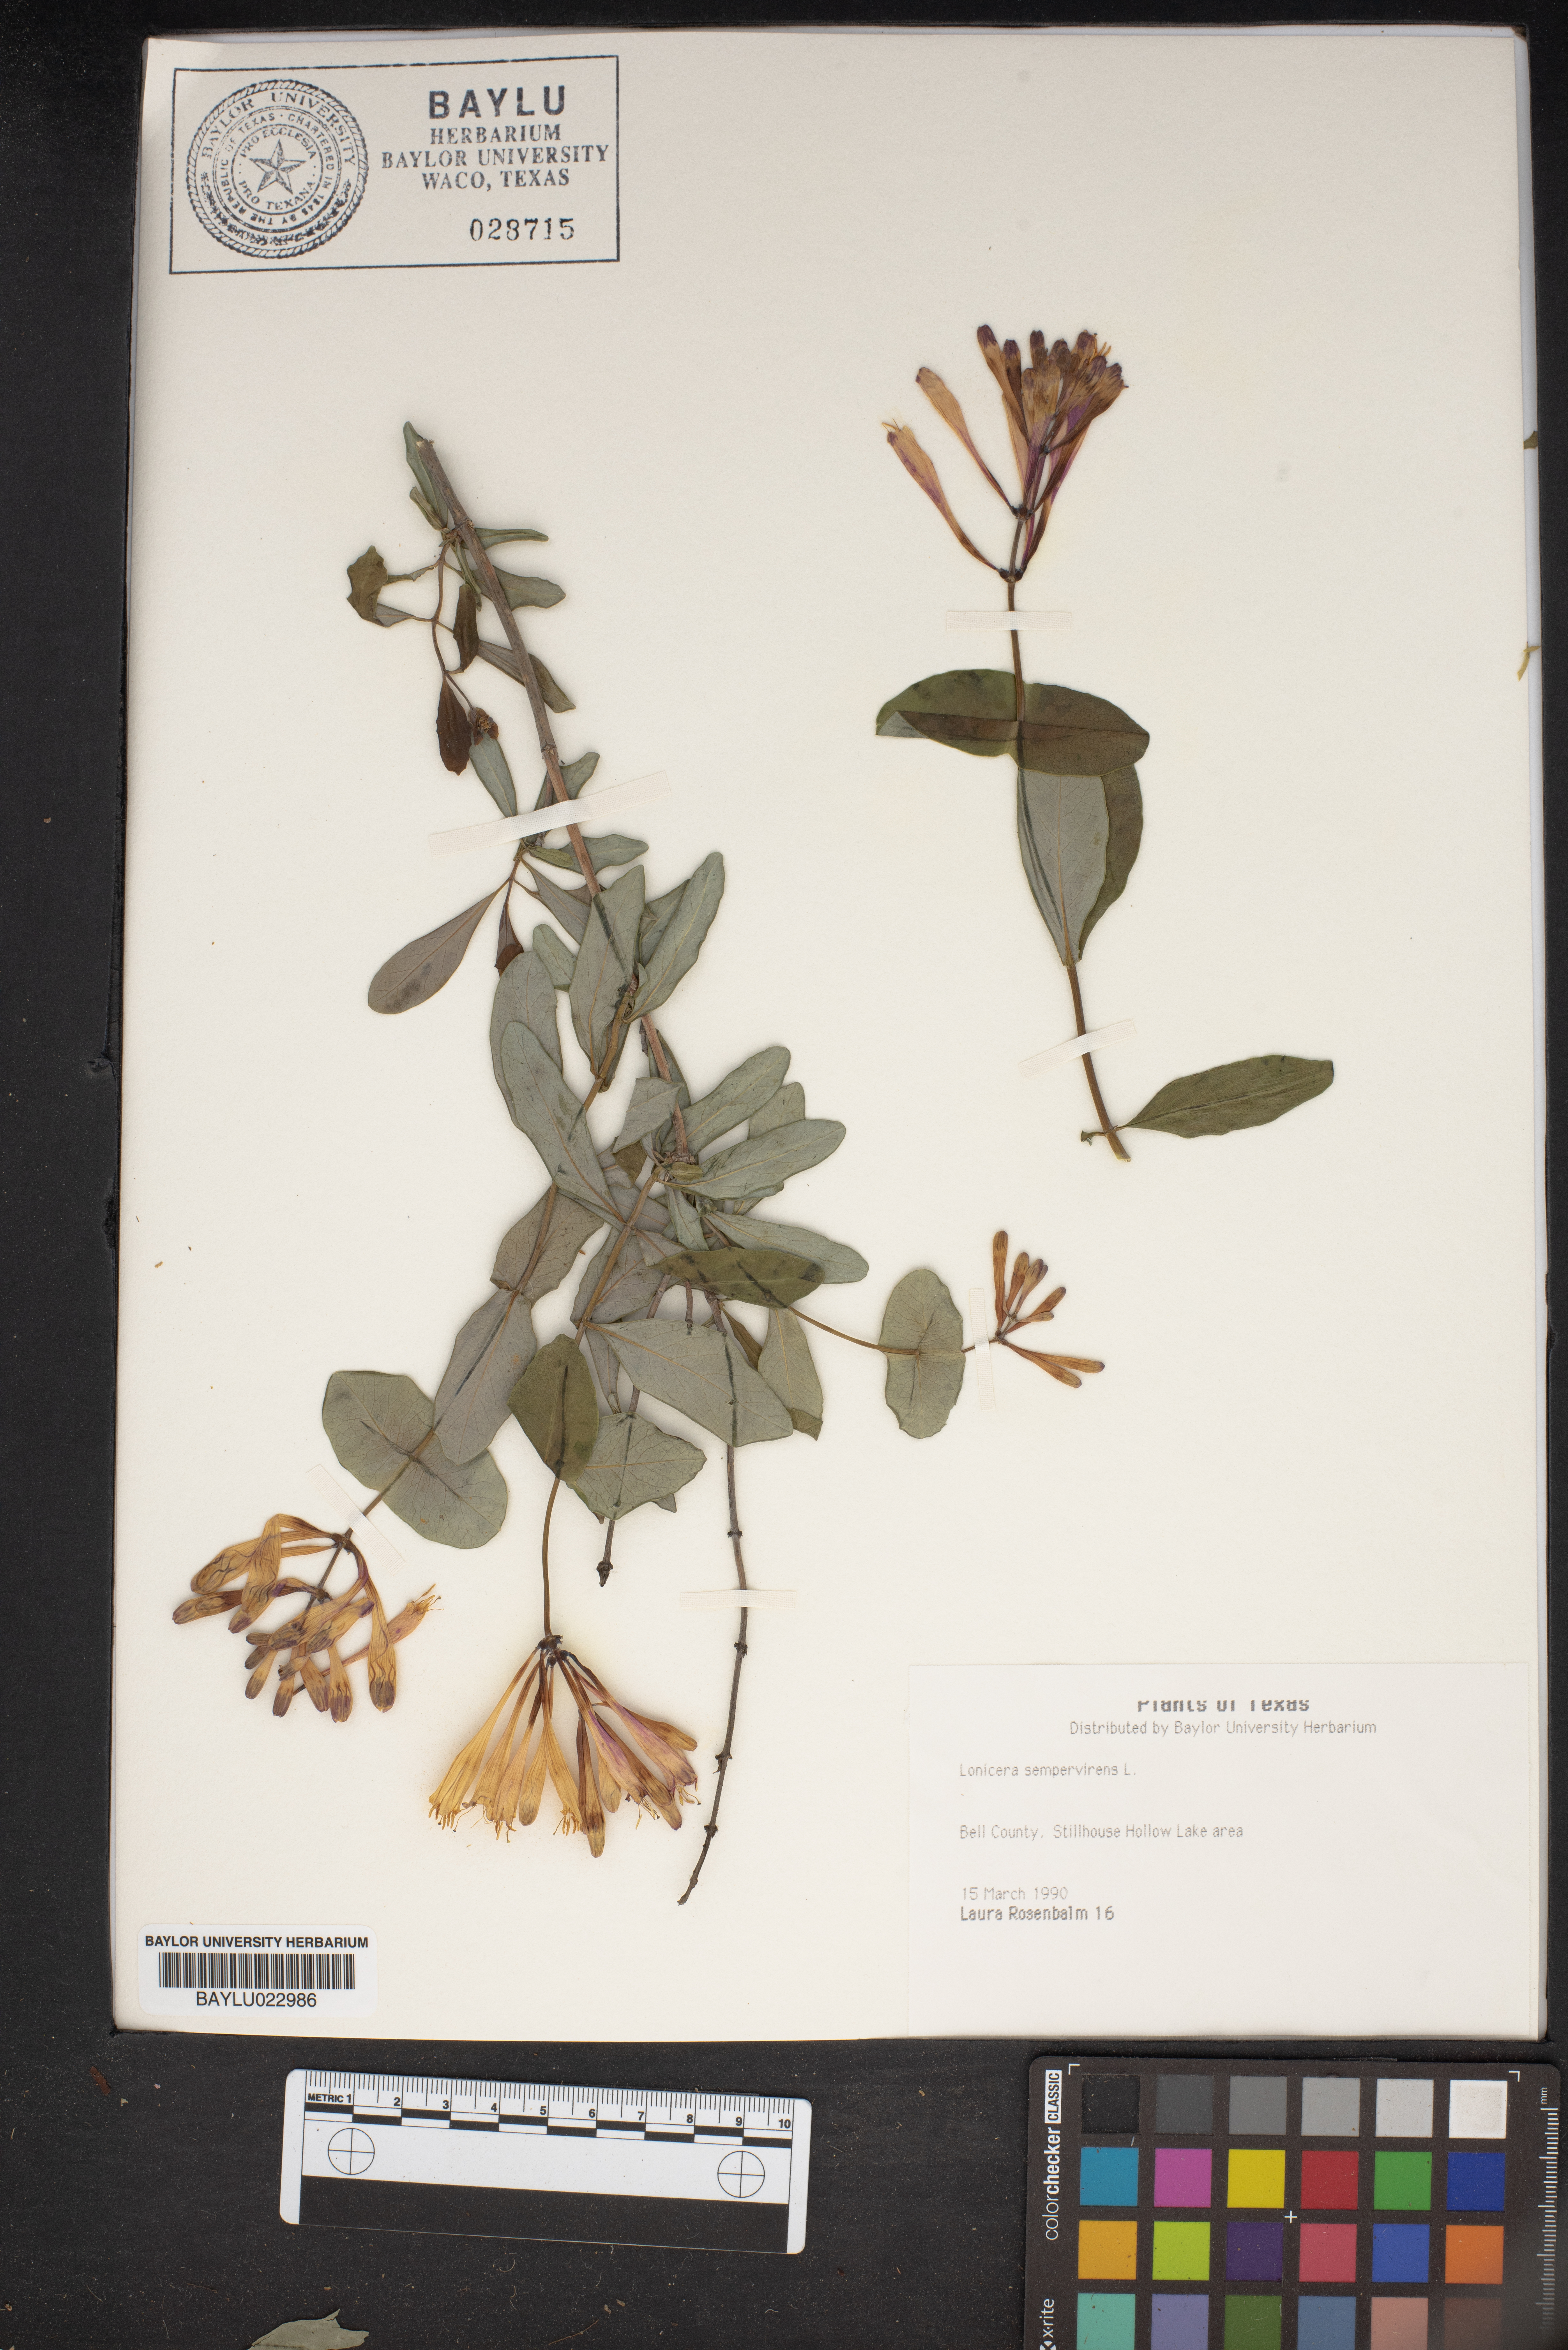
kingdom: Plantae
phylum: Tracheophyta
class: Magnoliopsida
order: Dipsacales
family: Caprifoliaceae
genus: Lonicera
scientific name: Lonicera sempervirens
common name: Coral honeysuckle
